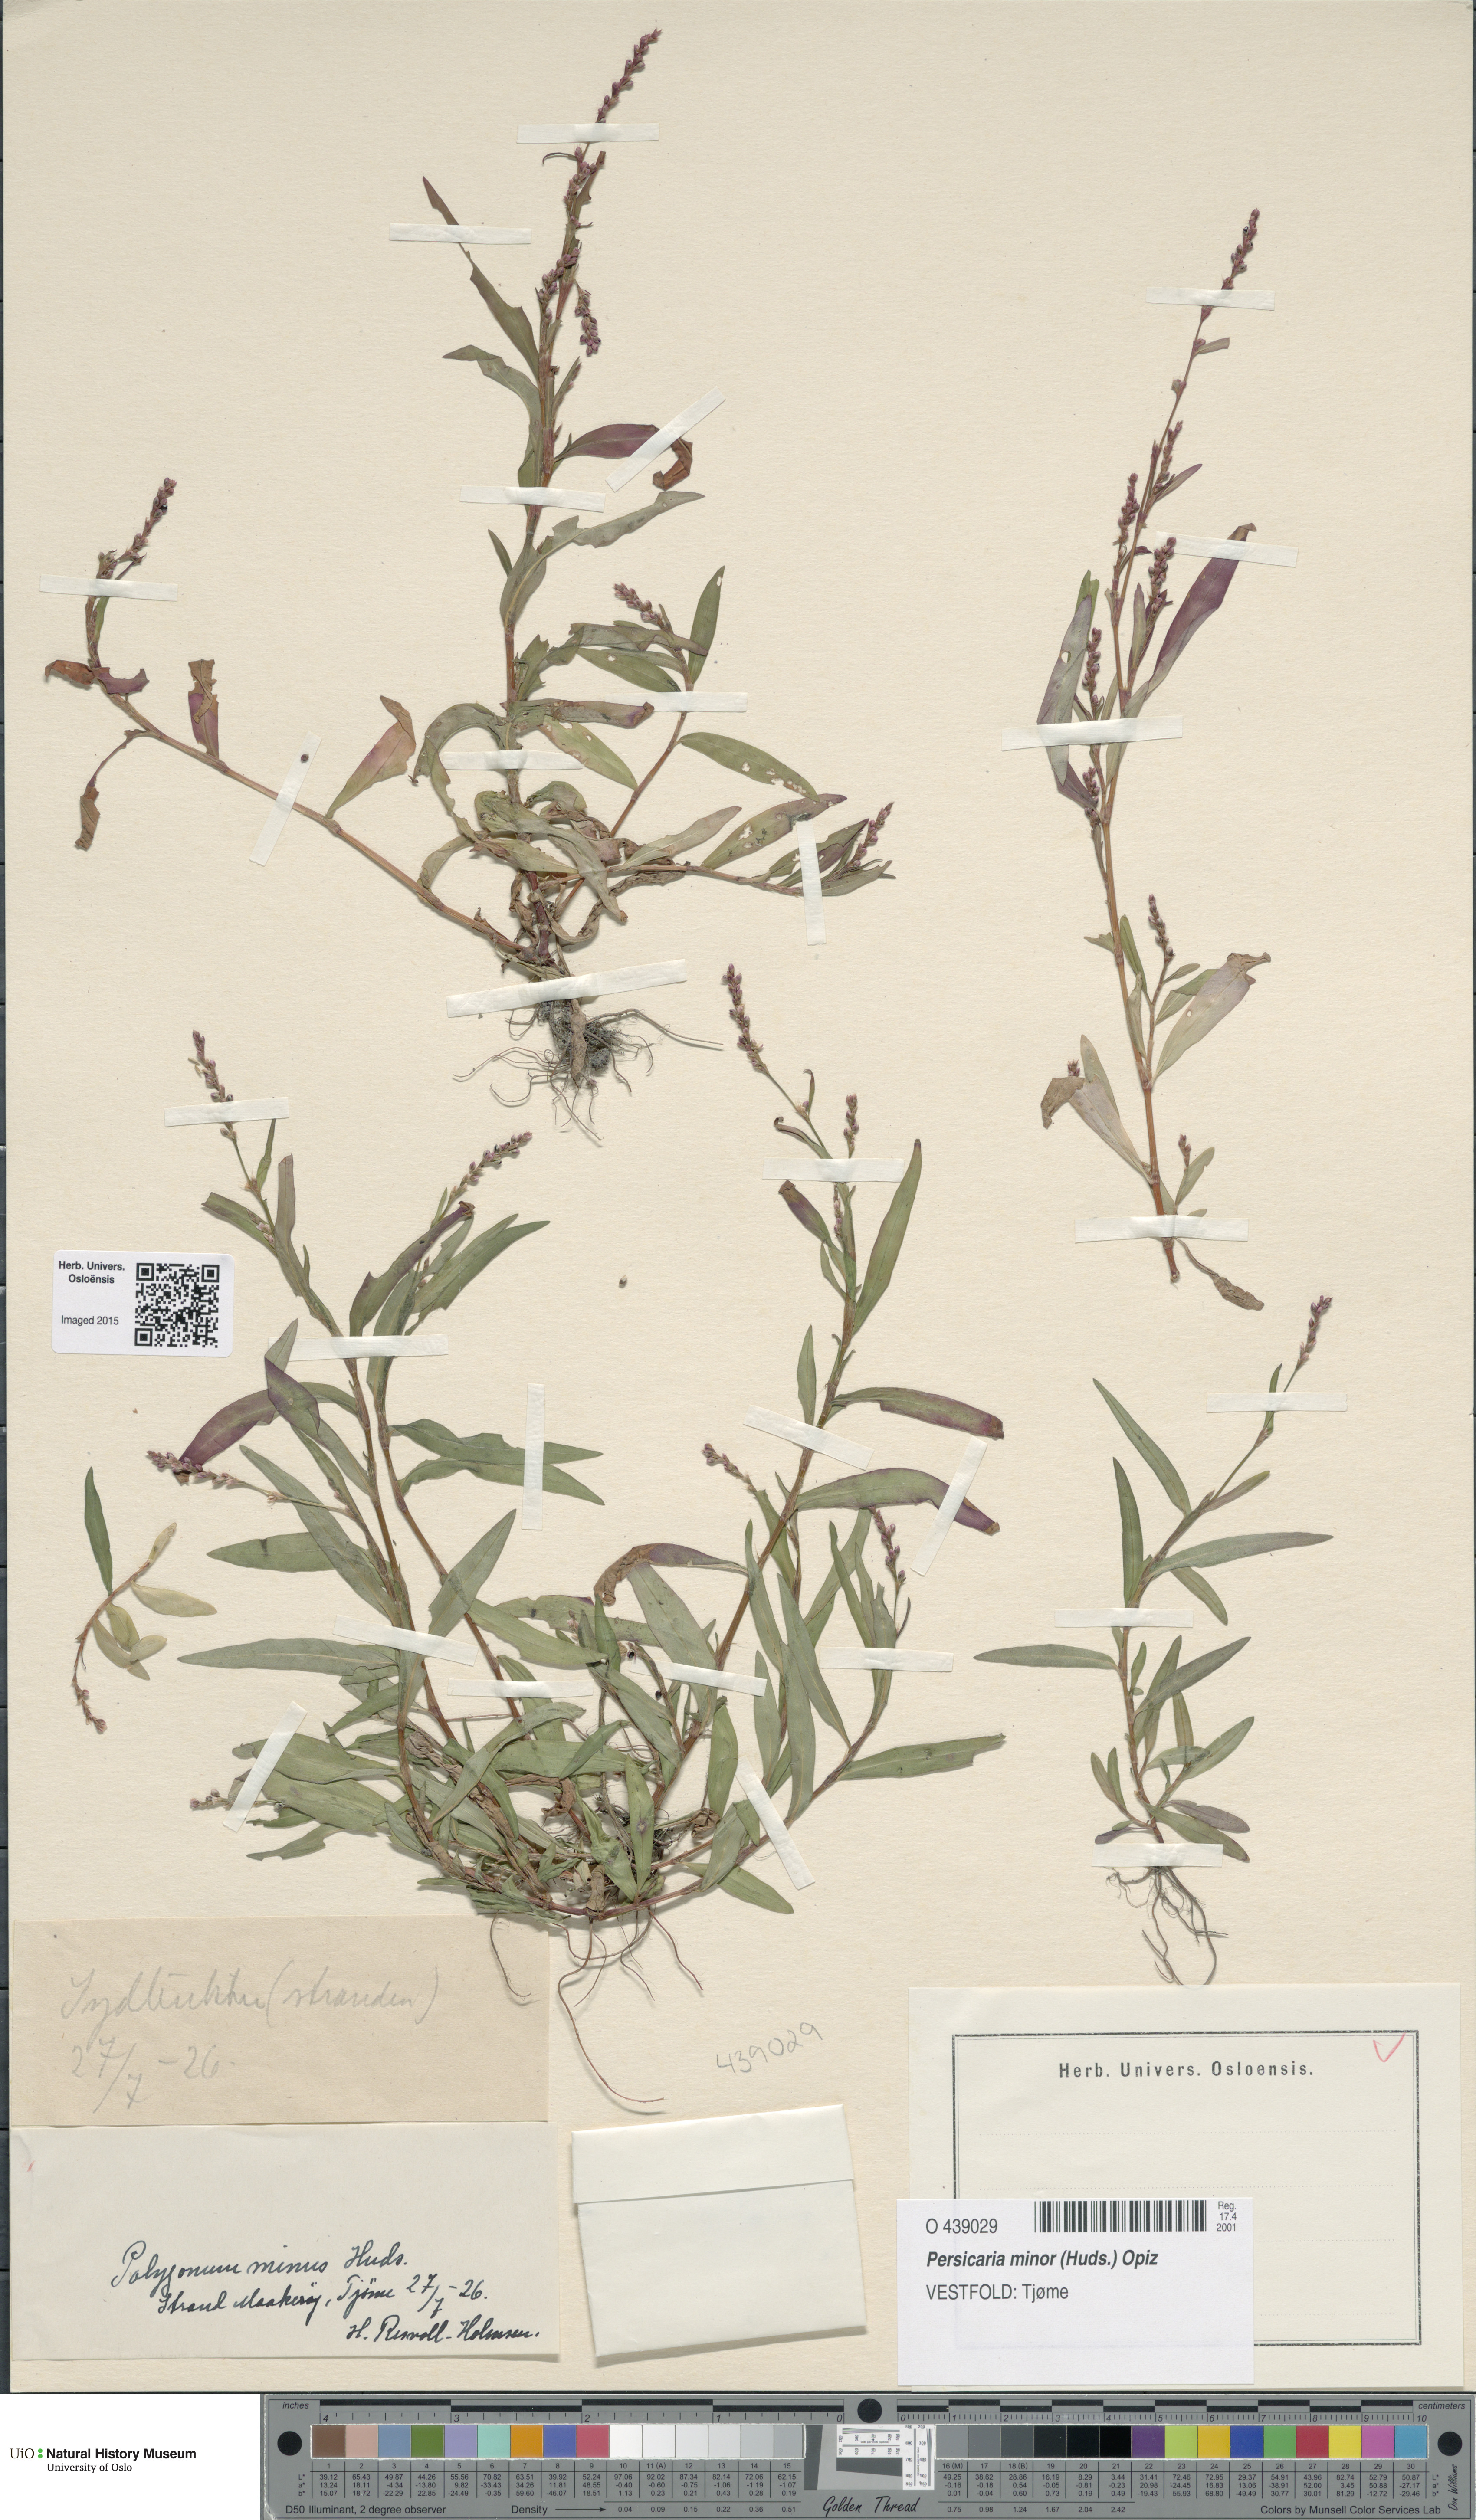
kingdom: Plantae
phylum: Tracheophyta
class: Magnoliopsida
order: Caryophyllales
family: Polygonaceae
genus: Persicaria
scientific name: Persicaria minor
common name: Small water-pepper
